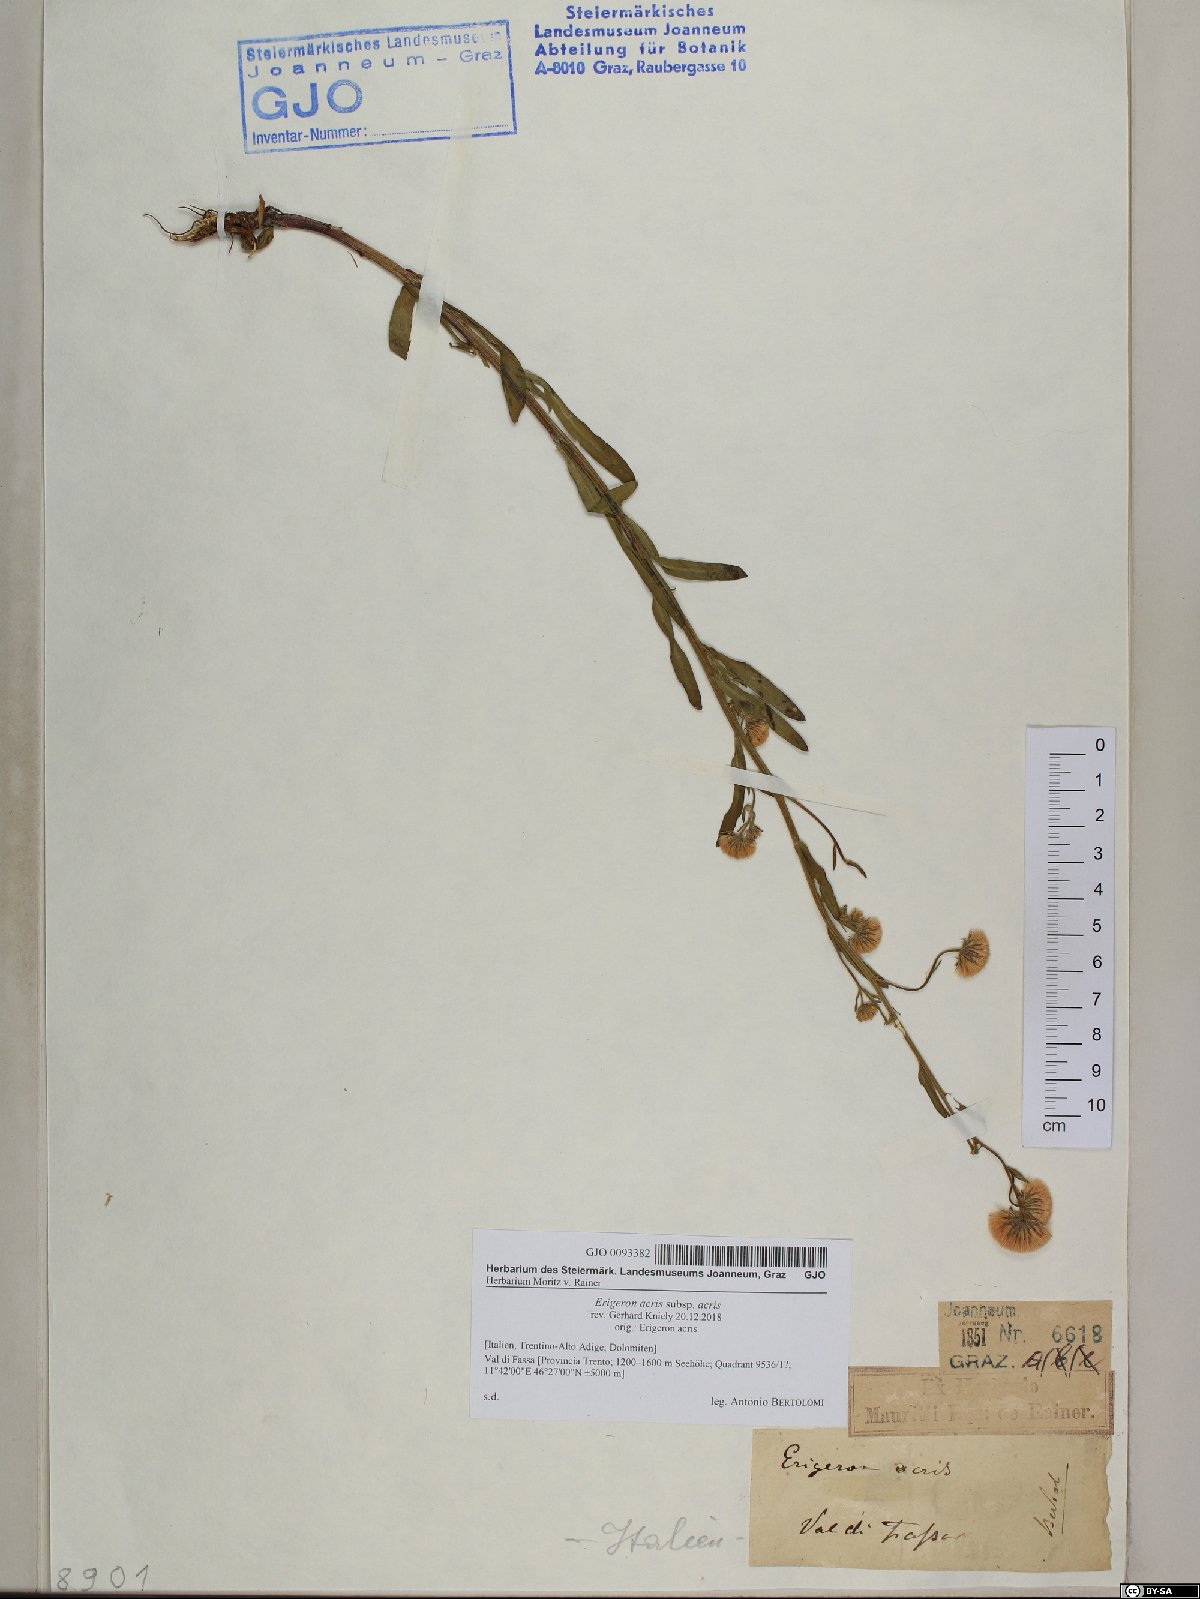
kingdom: Plantae
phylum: Tracheophyta
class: Magnoliopsida
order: Asterales
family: Asteraceae
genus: Erigeron
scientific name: Erigeron acris
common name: Blue fleabane
